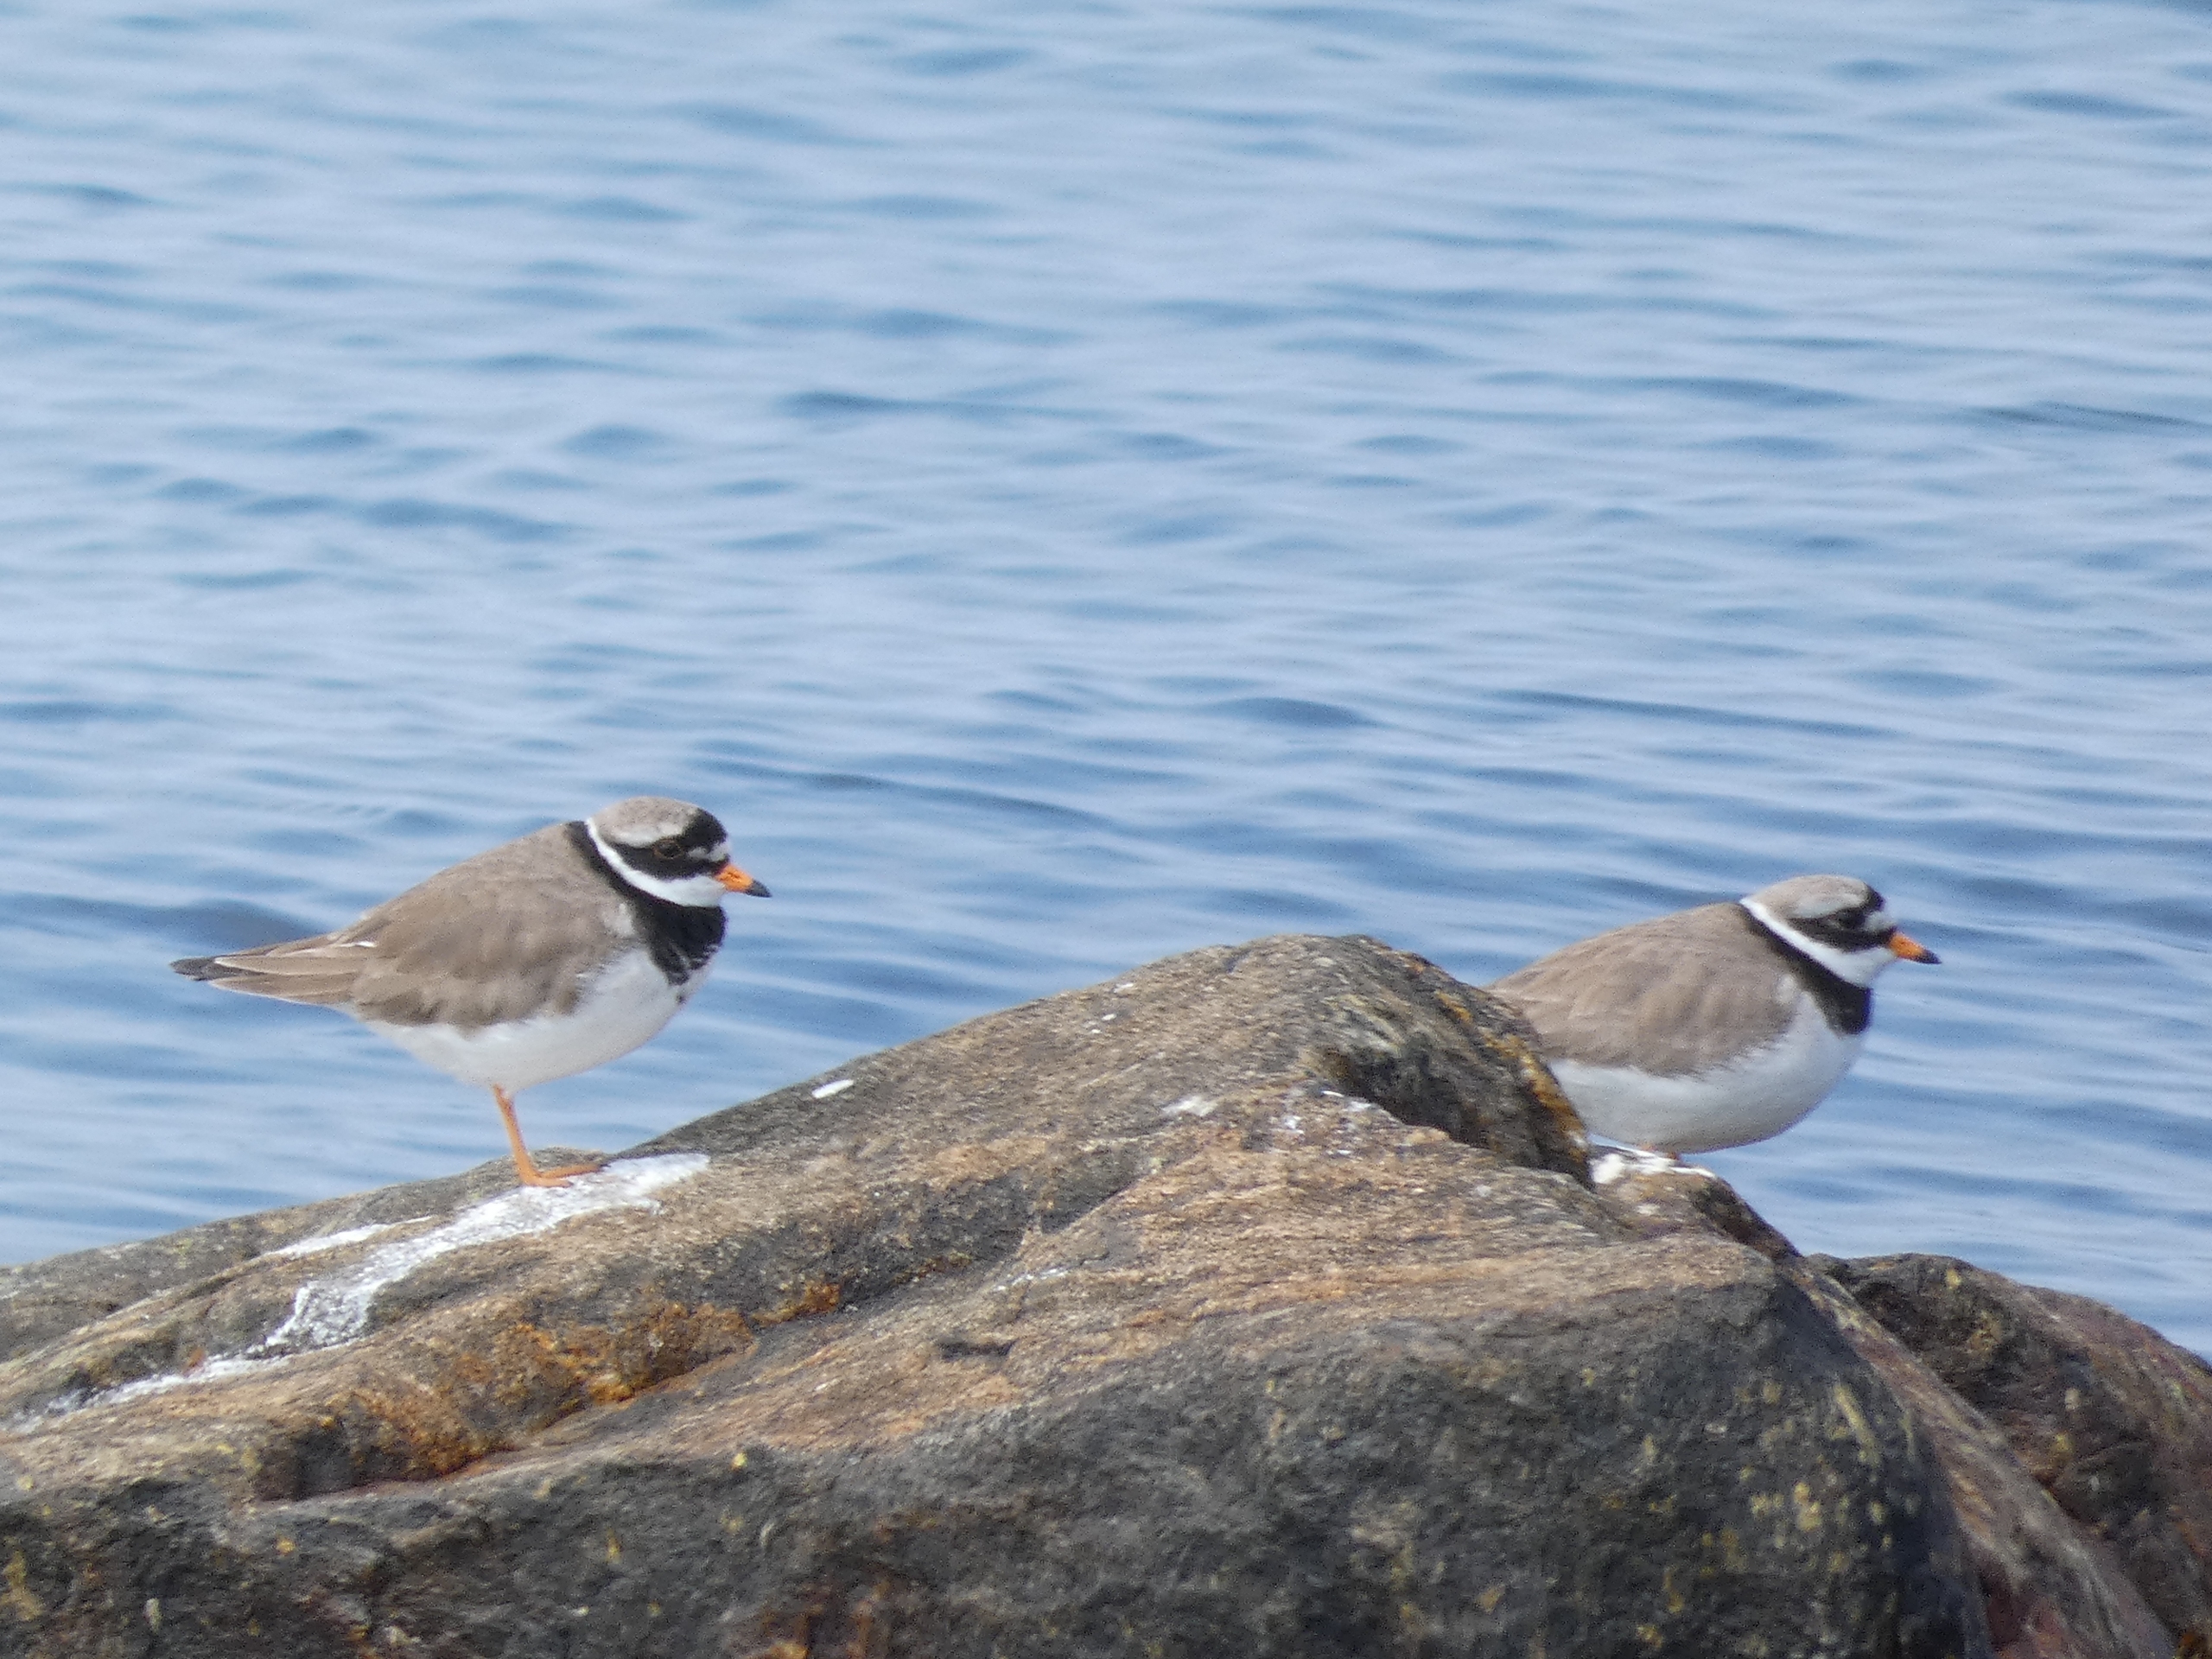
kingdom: Animalia
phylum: Chordata
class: Aves
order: Charadriiformes
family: Charadriidae
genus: Charadrius
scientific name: Charadrius hiaticula
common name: Stor præstekrave
